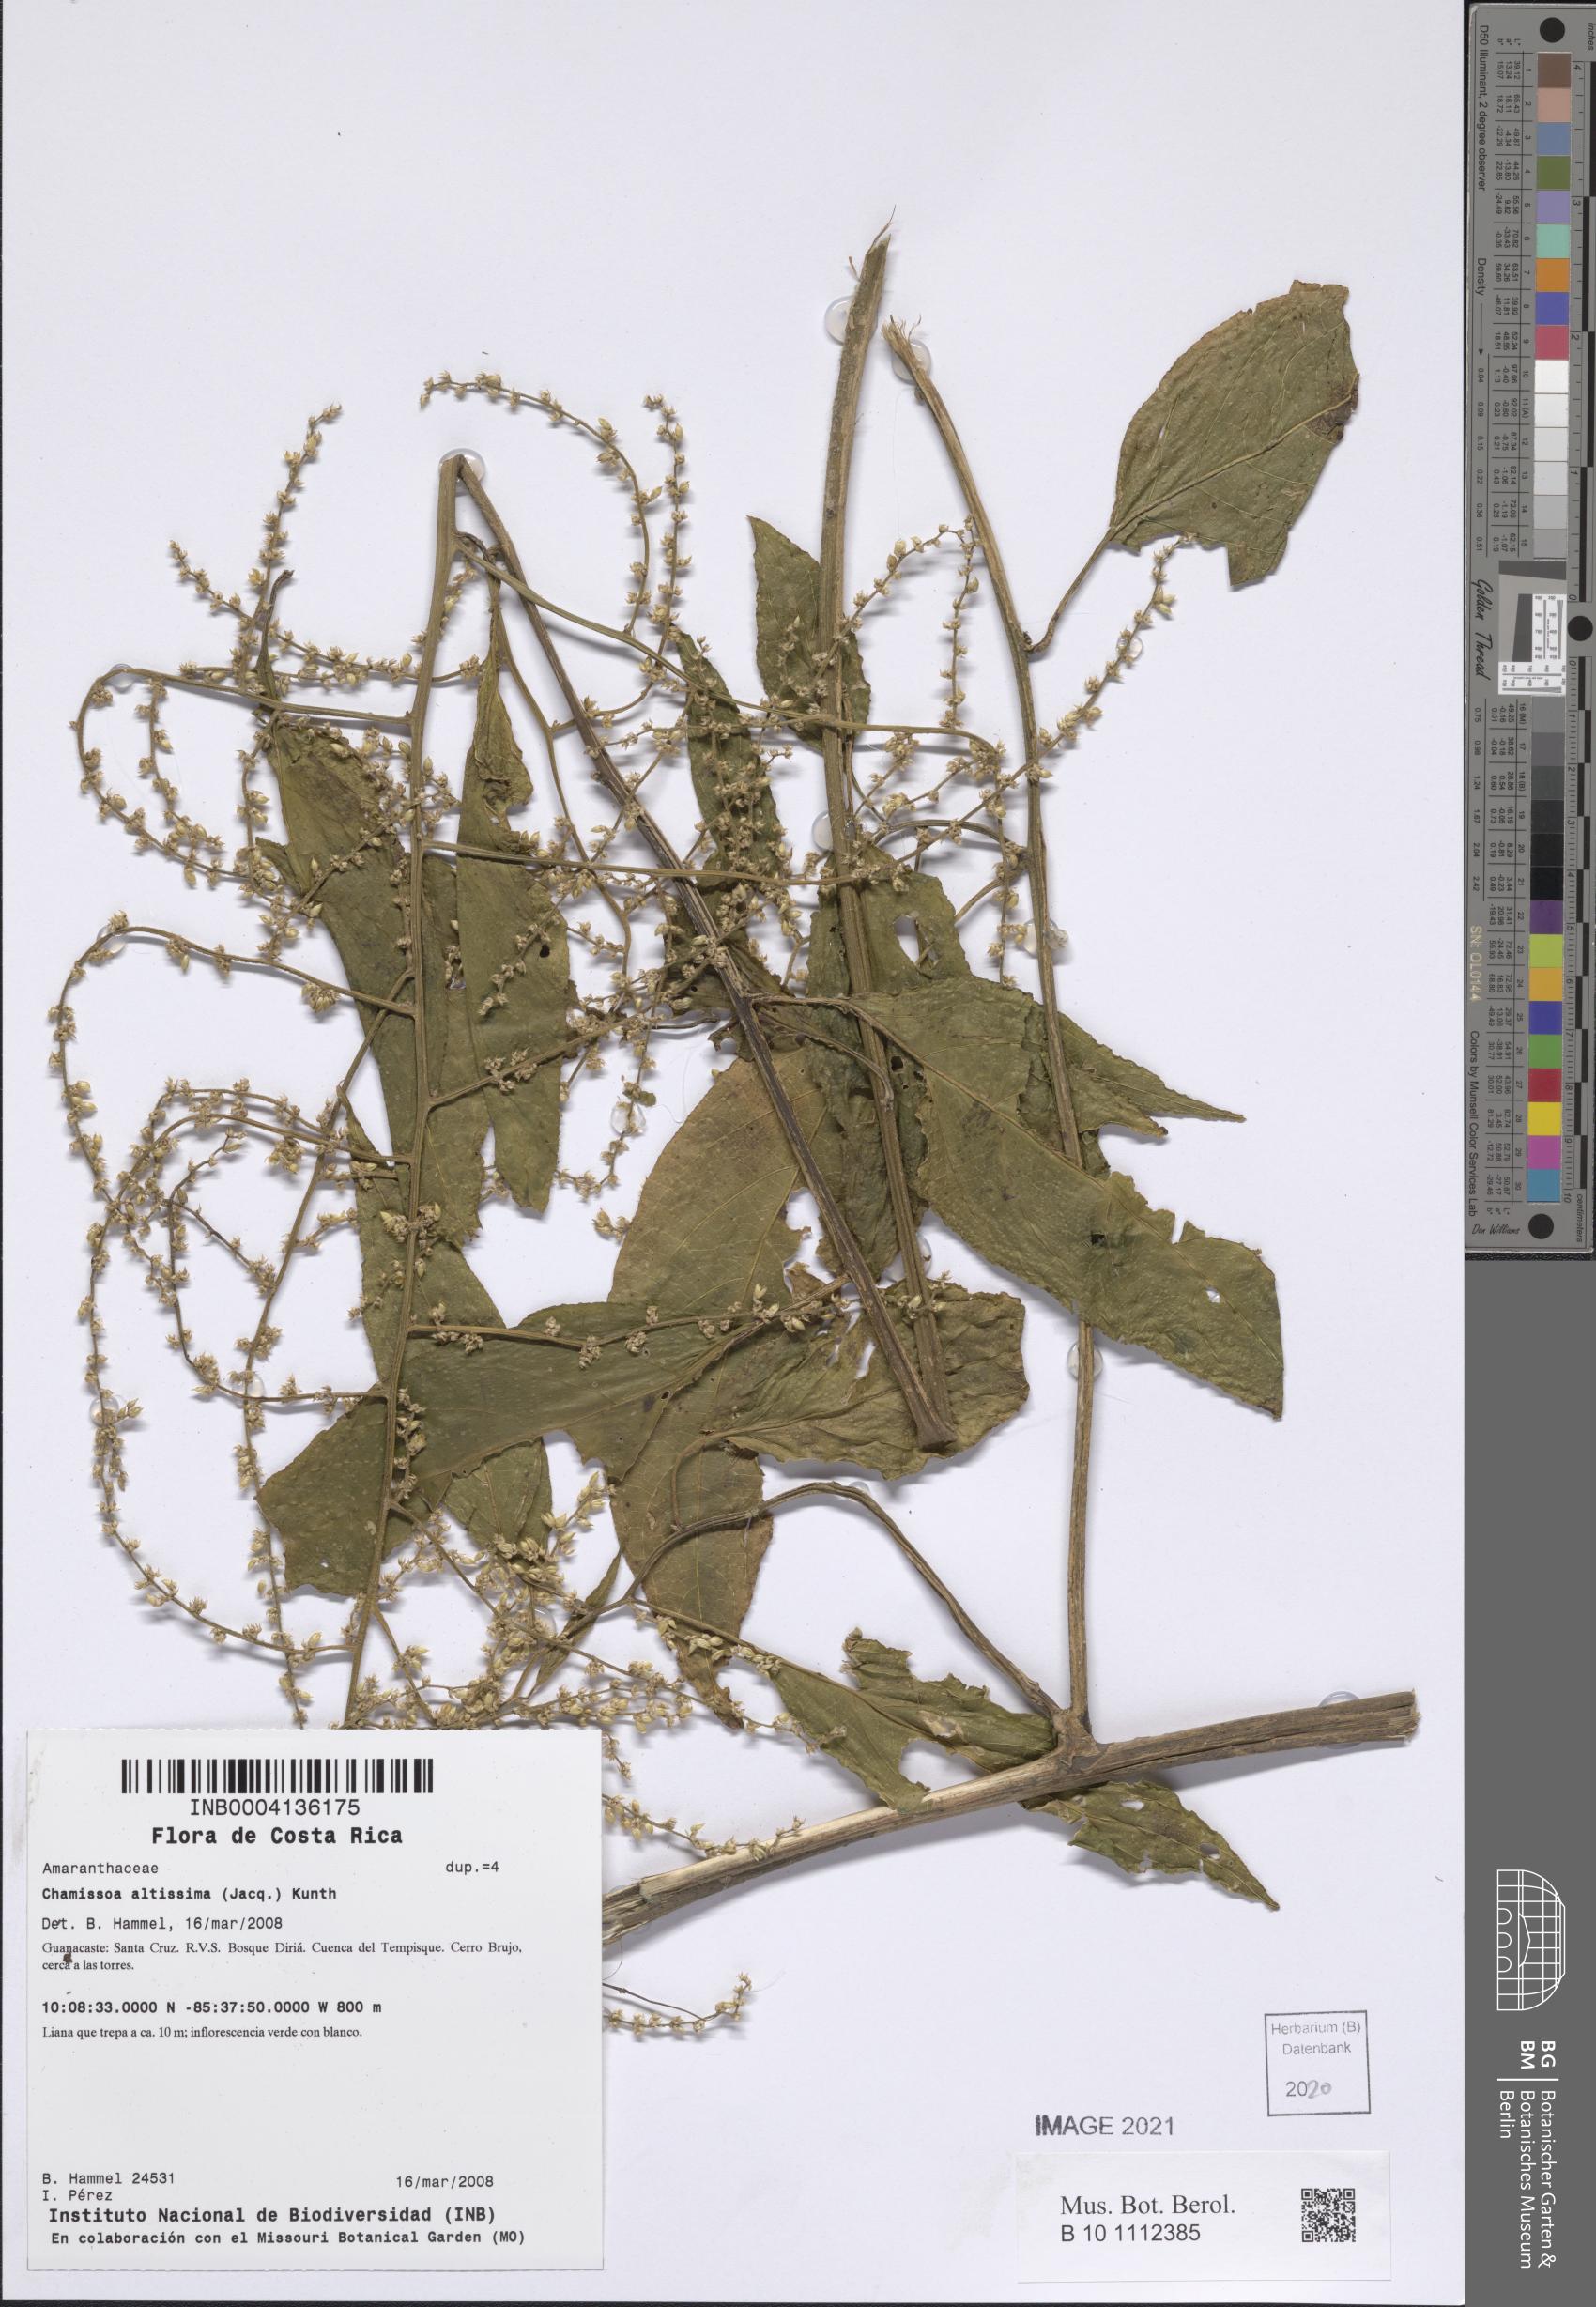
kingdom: Plantae
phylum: Tracheophyta
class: Magnoliopsida
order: Caryophyllales
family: Amaranthaceae
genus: Chamissoa
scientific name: Chamissoa altissima
